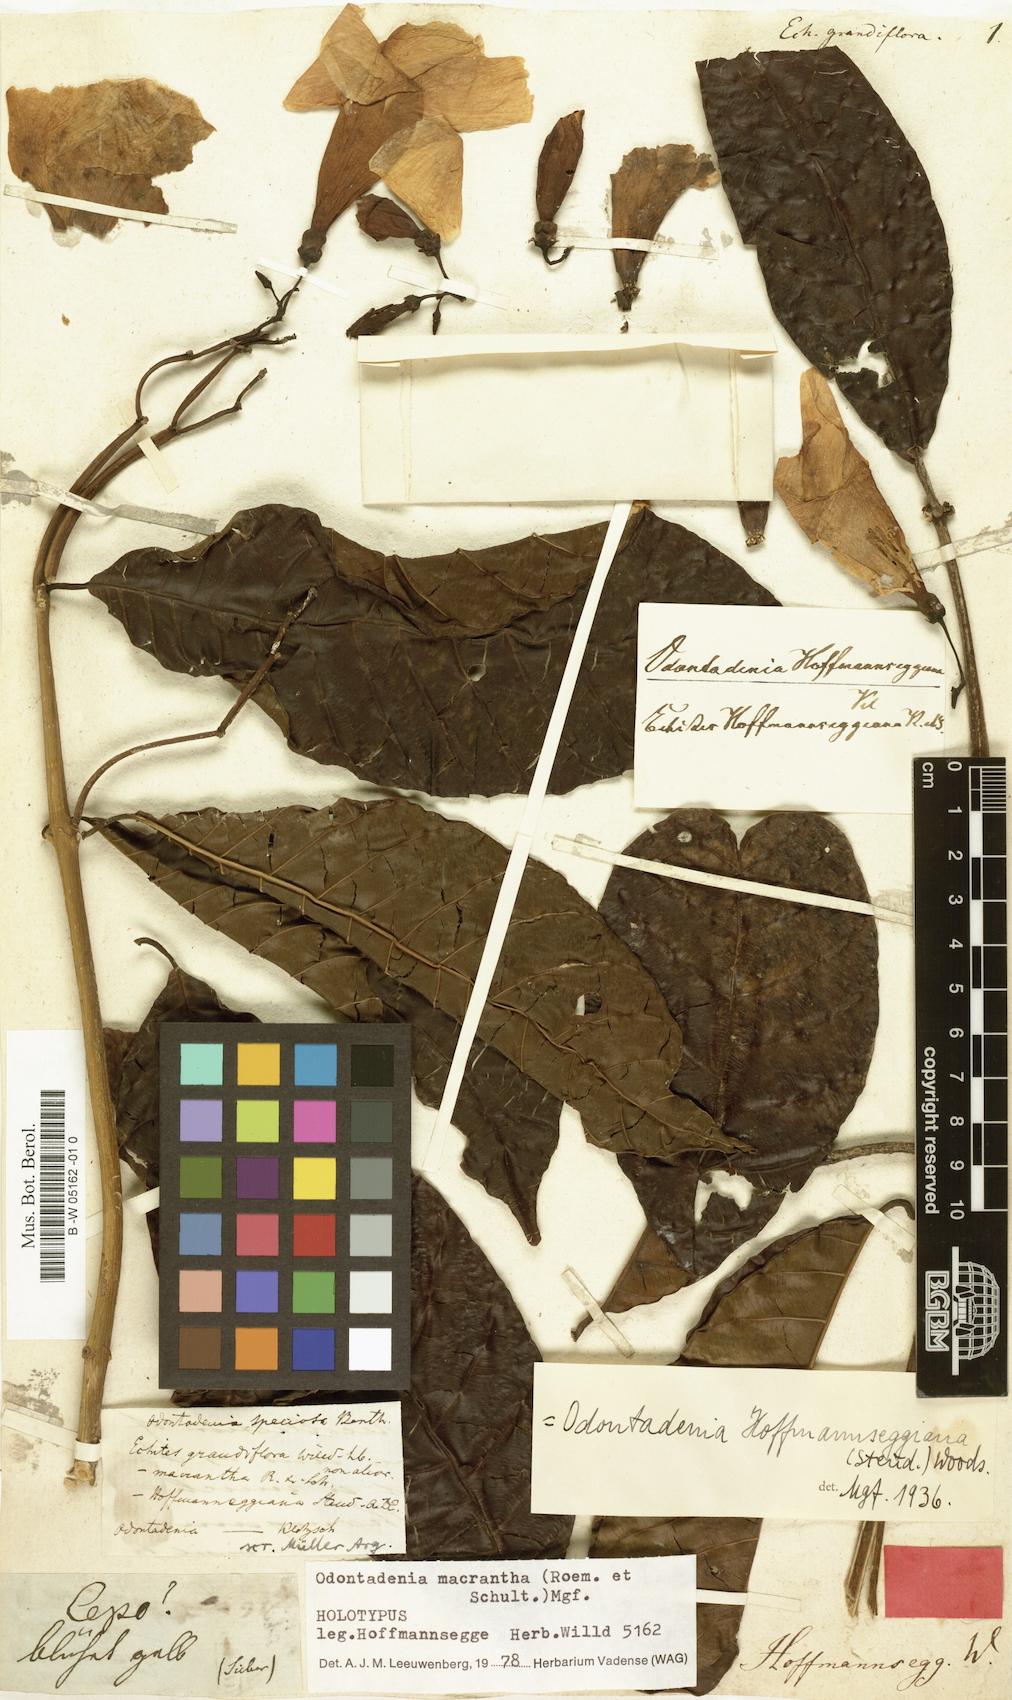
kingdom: Plantae
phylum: Tracheophyta
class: Magnoliopsida
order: Gentianales
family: Apocynaceae
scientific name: Apocynaceae
